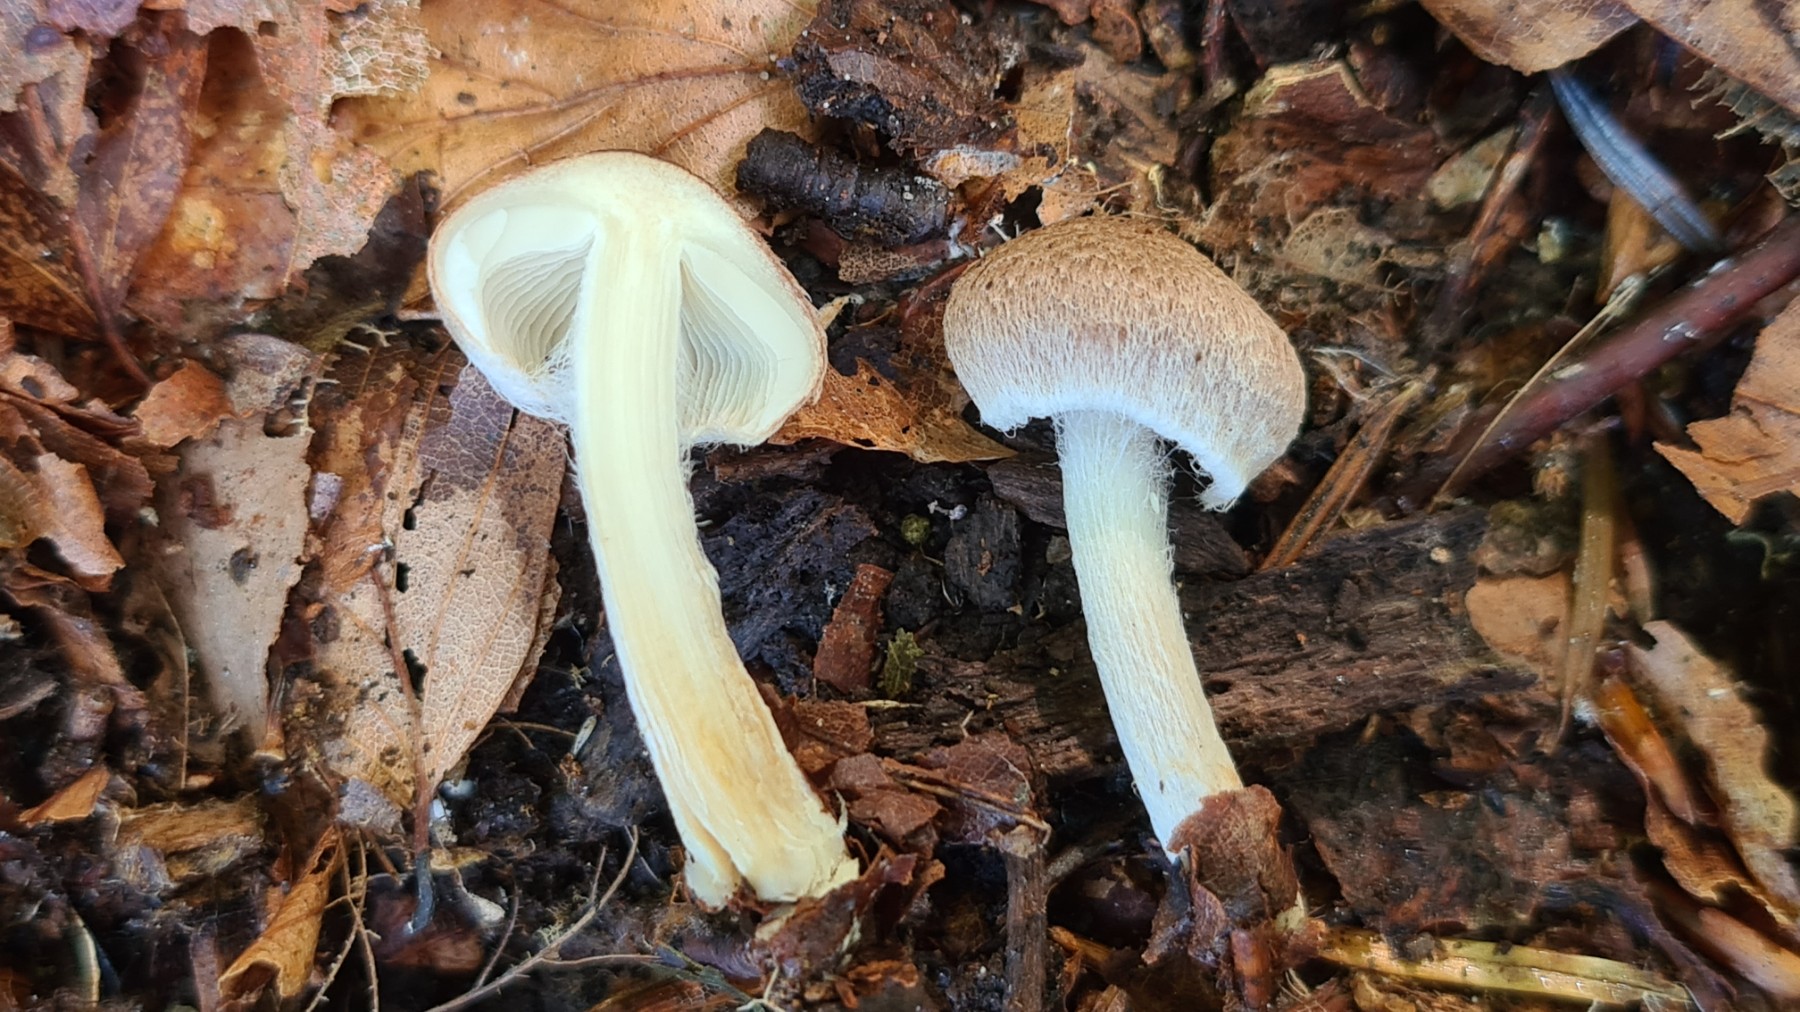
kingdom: Fungi
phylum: Basidiomycota
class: Agaricomycetes
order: Agaricales
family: Inocybaceae
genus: Inocybe
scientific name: Inocybe
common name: trævlhat
